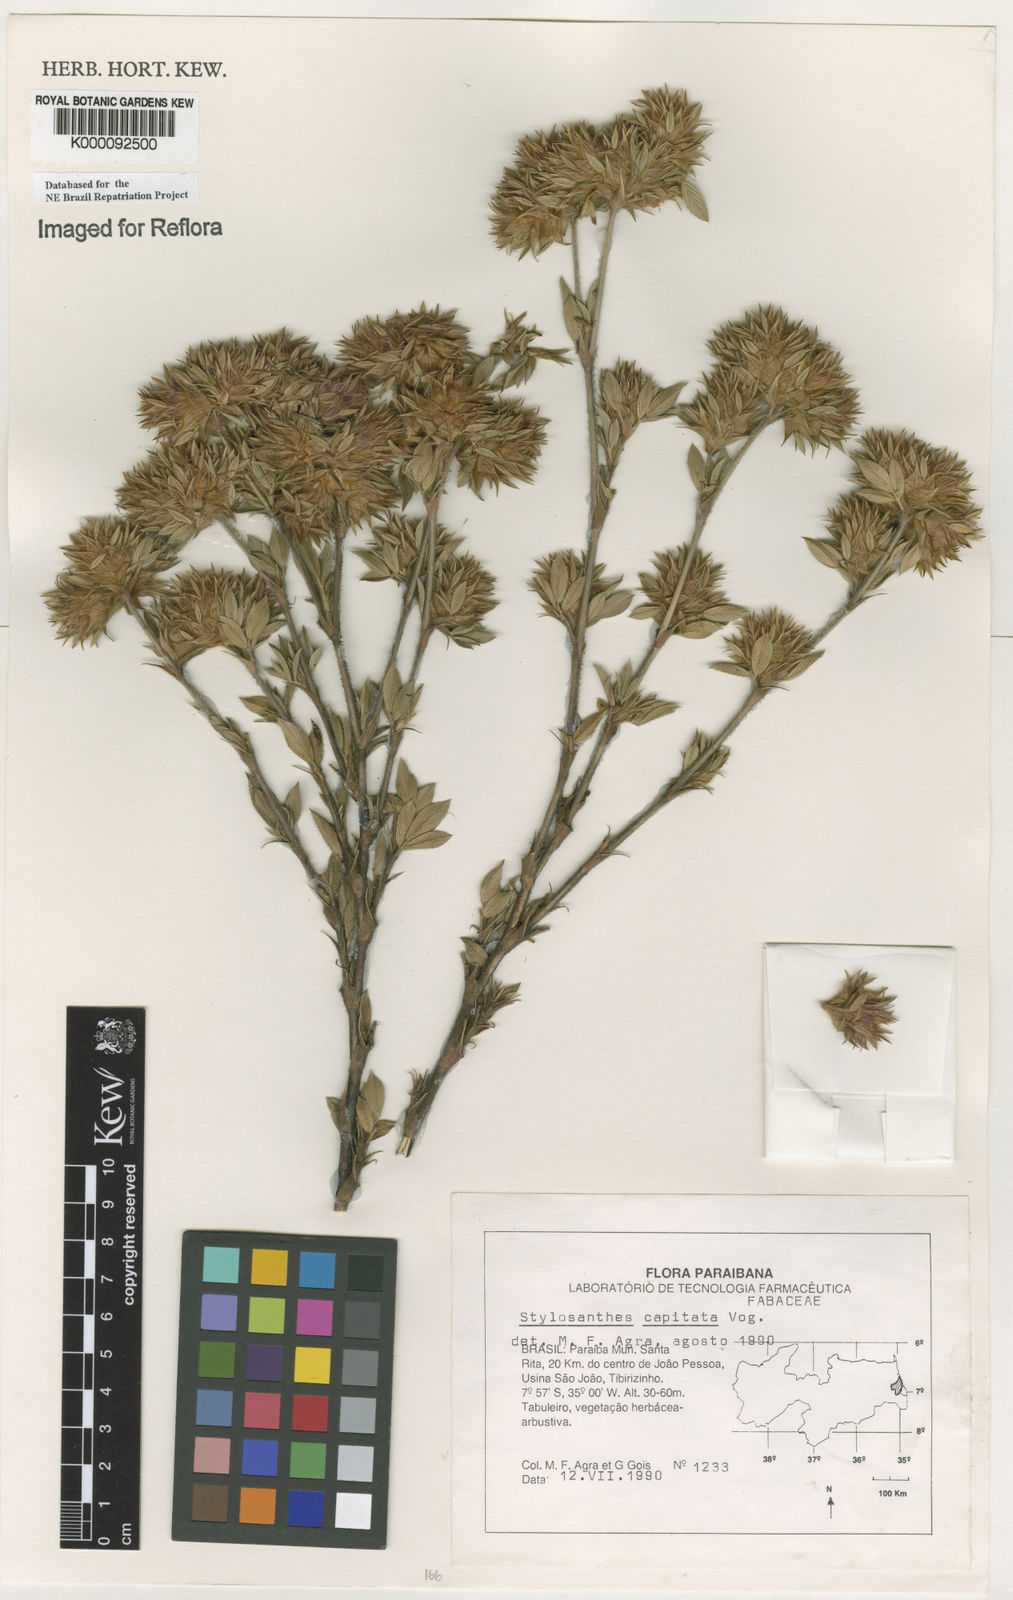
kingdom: Plantae
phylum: Tracheophyta
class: Magnoliopsida
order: Fabales
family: Fabaceae
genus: Stylosanthes
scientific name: Stylosanthes capitata
